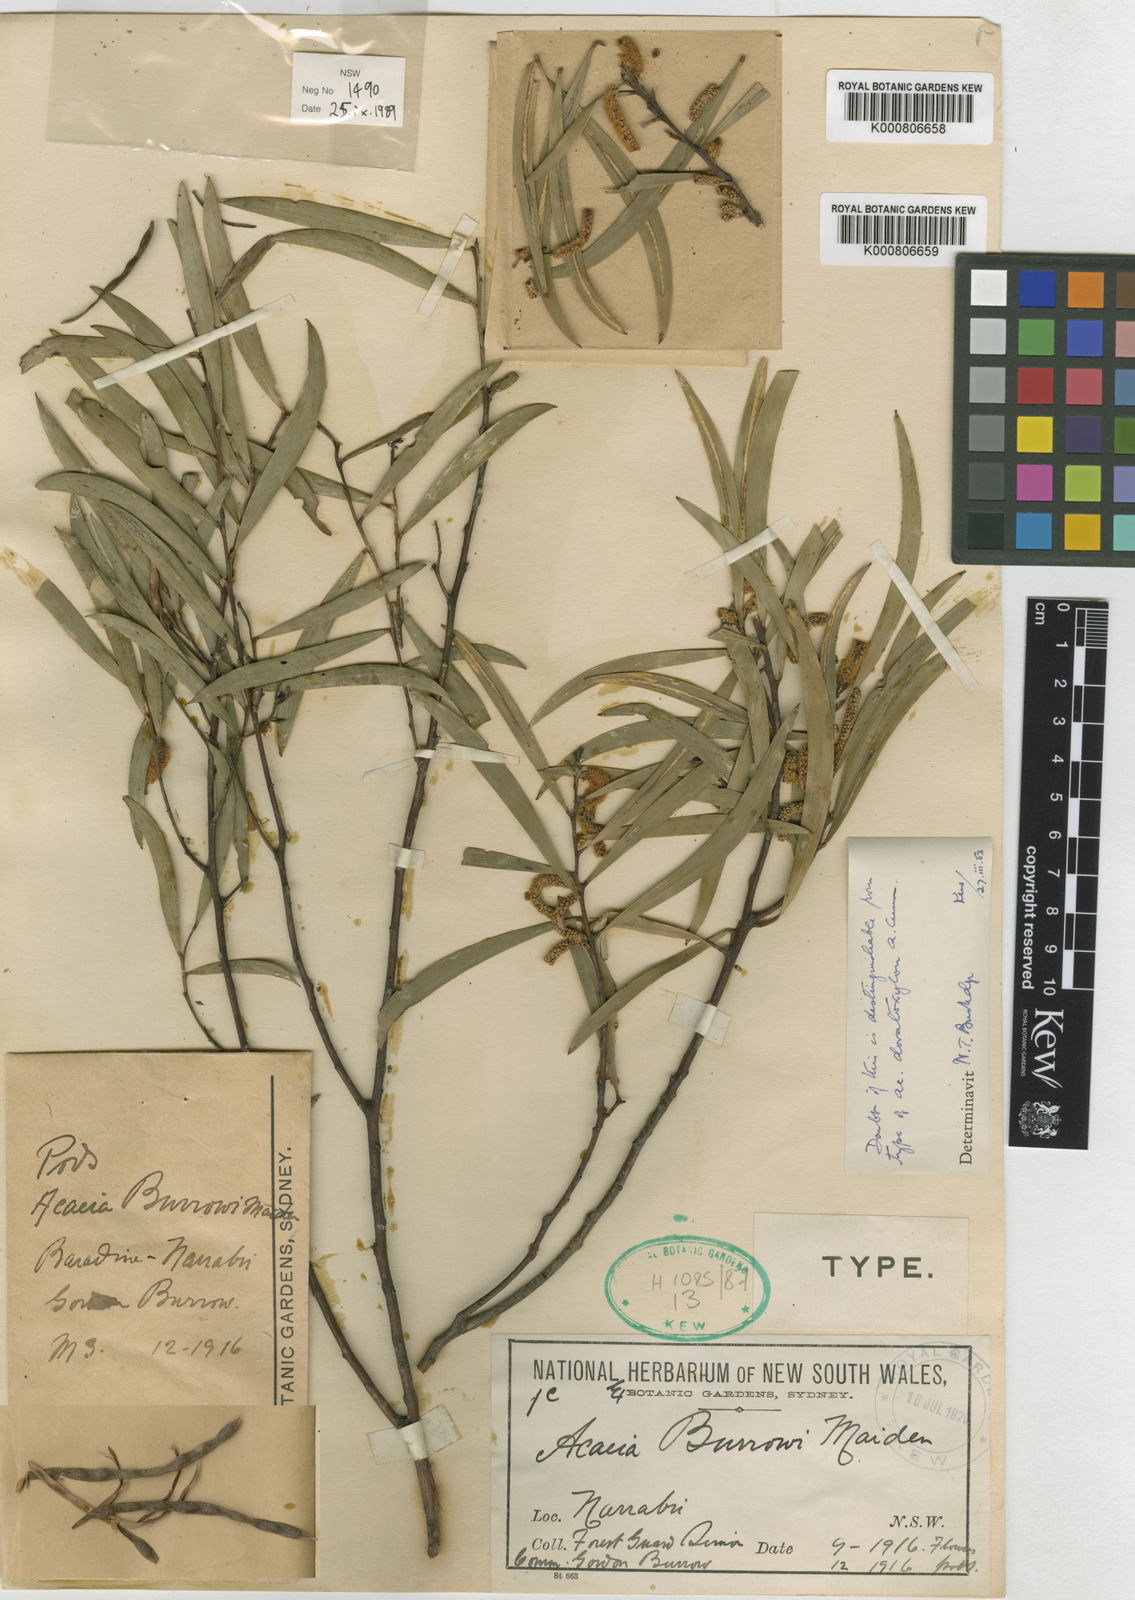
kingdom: Plantae
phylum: Tracheophyta
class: Magnoliopsida
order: Fabales
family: Fabaceae
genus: Acacia
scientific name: Acacia burrowii
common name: Currawong
